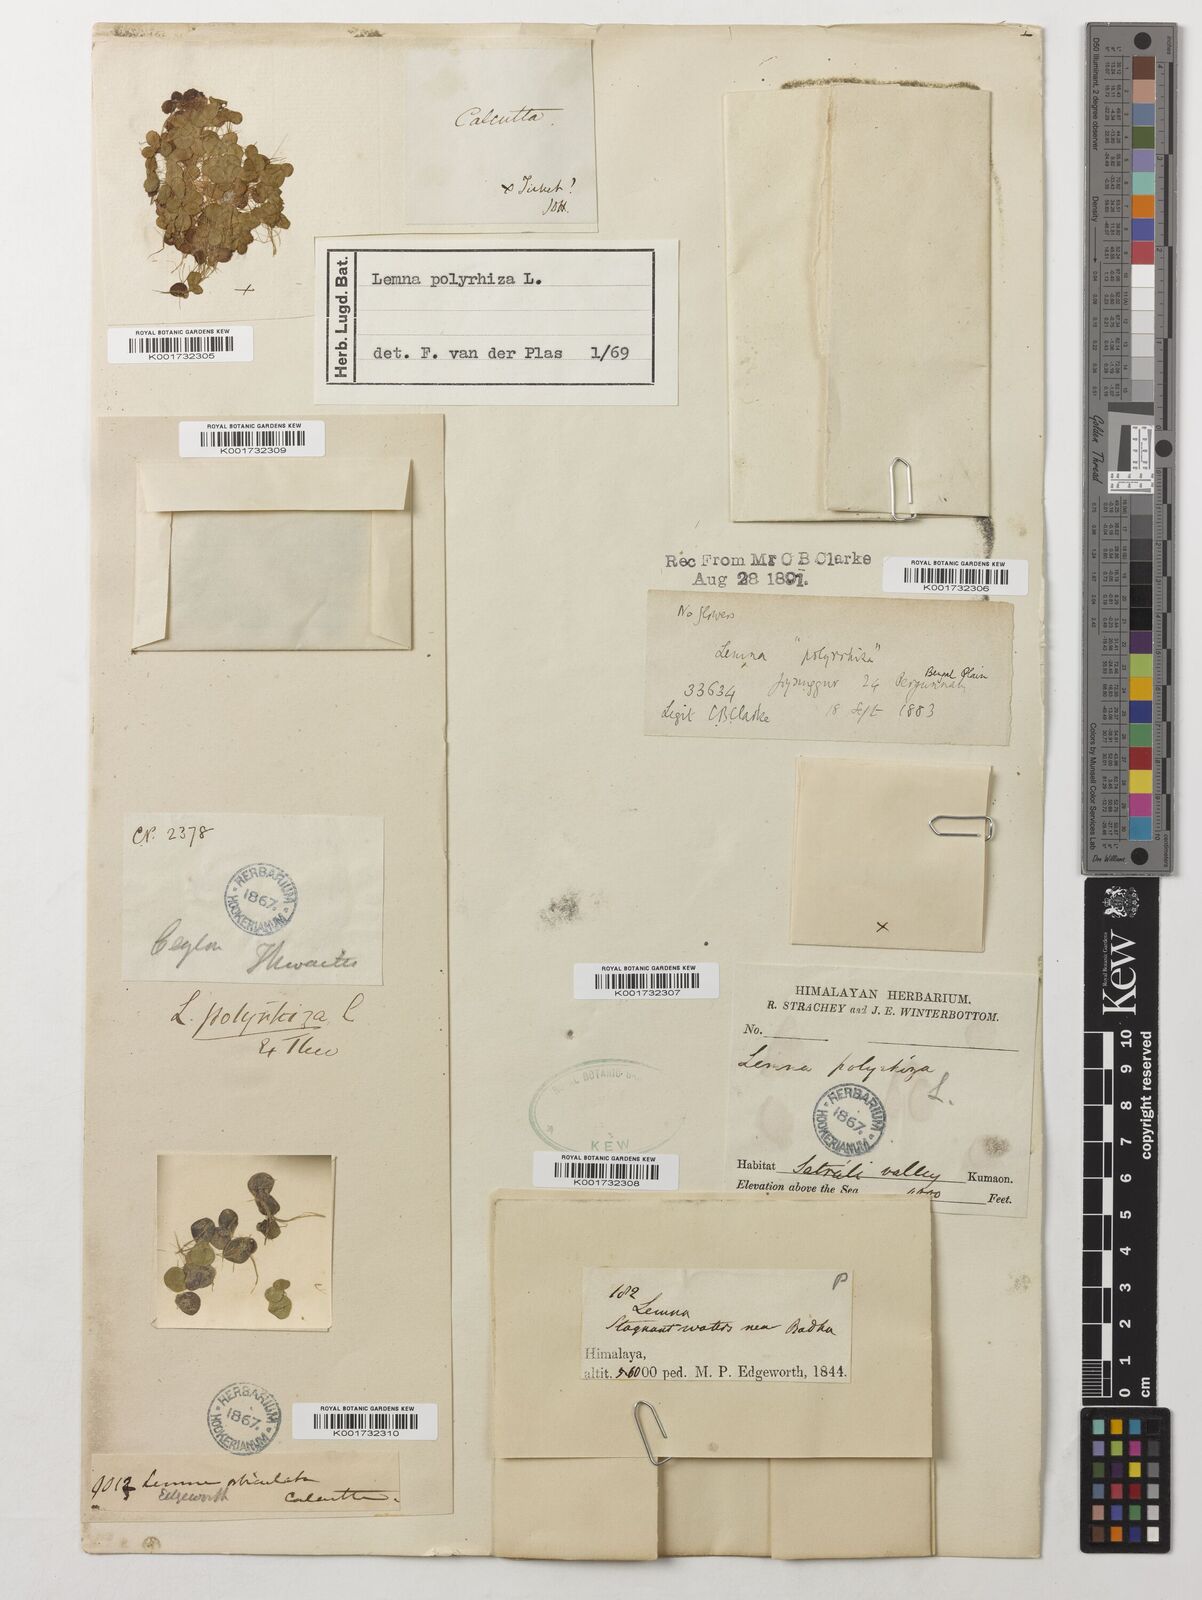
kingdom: Plantae
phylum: Tracheophyta
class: Liliopsida
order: Alismatales
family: Araceae
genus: Spirodela
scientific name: Spirodela polyrhiza
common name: Great duckweed
